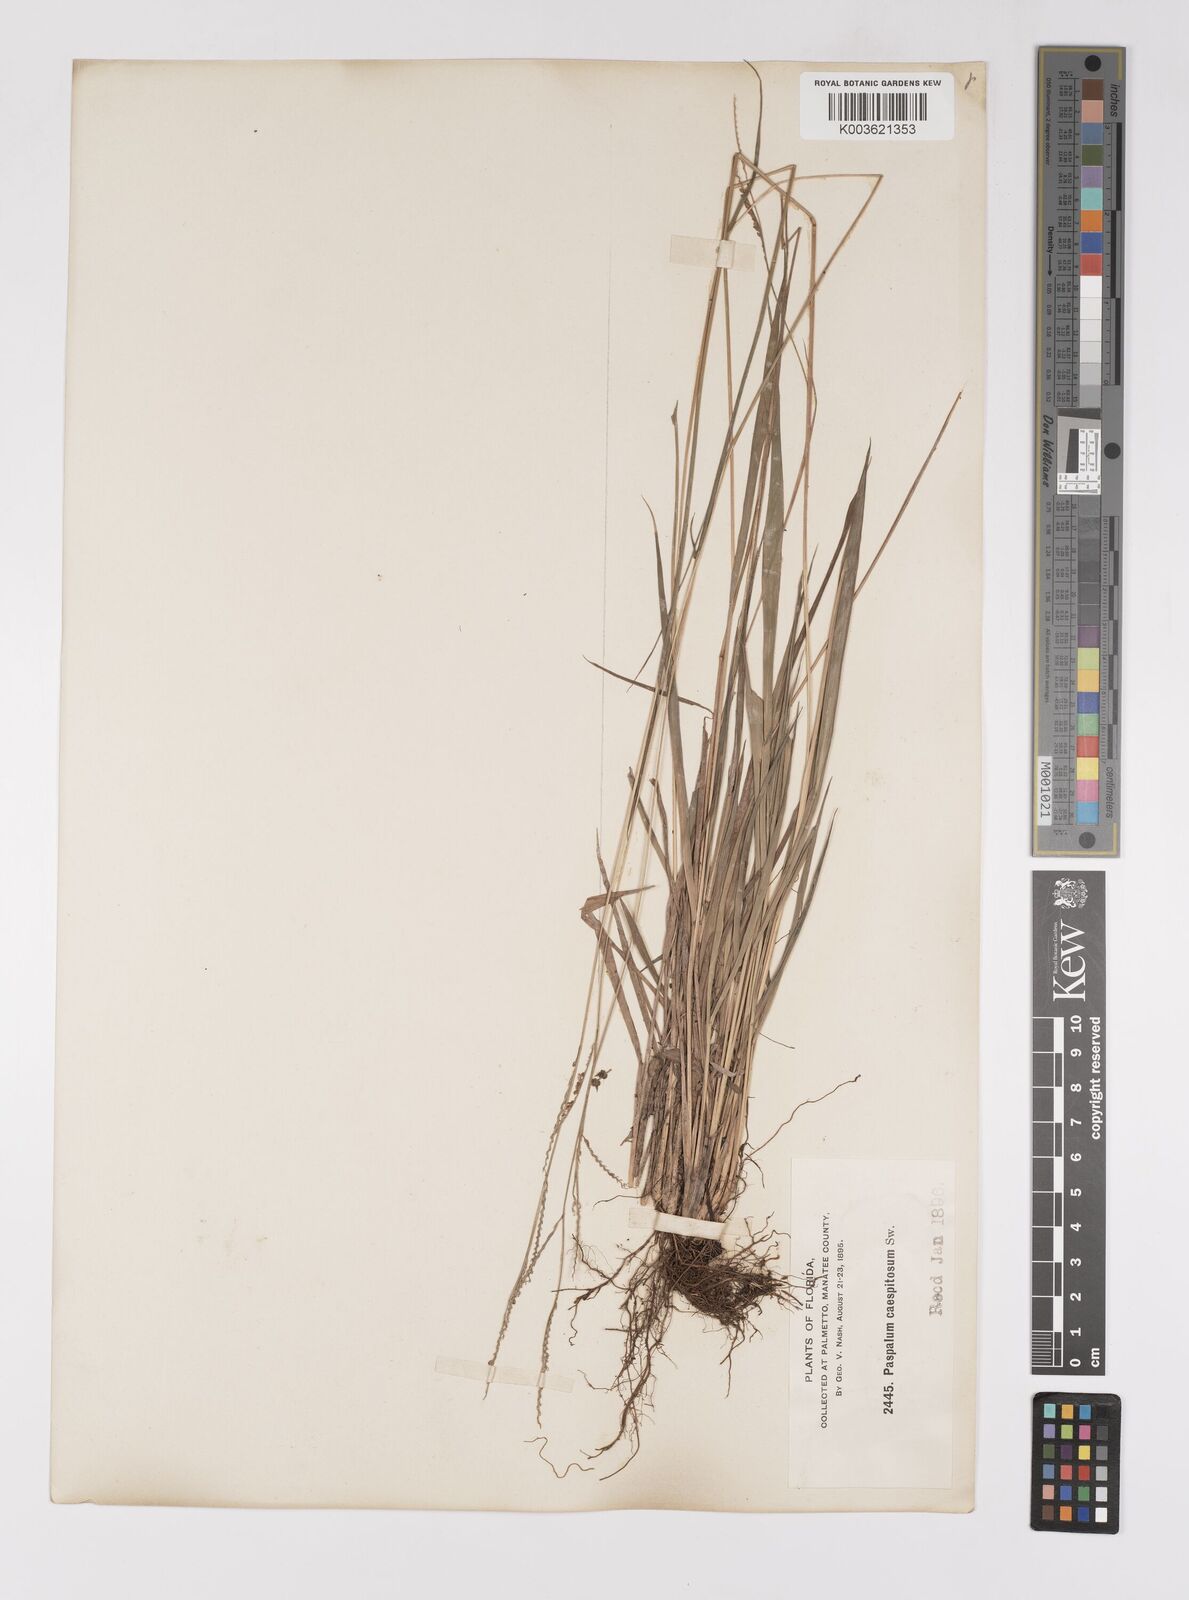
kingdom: Plantae
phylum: Tracheophyta
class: Liliopsida
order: Poales
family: Poaceae
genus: Paspalum
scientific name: Paspalum caespitosum
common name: Blue crowngrass
